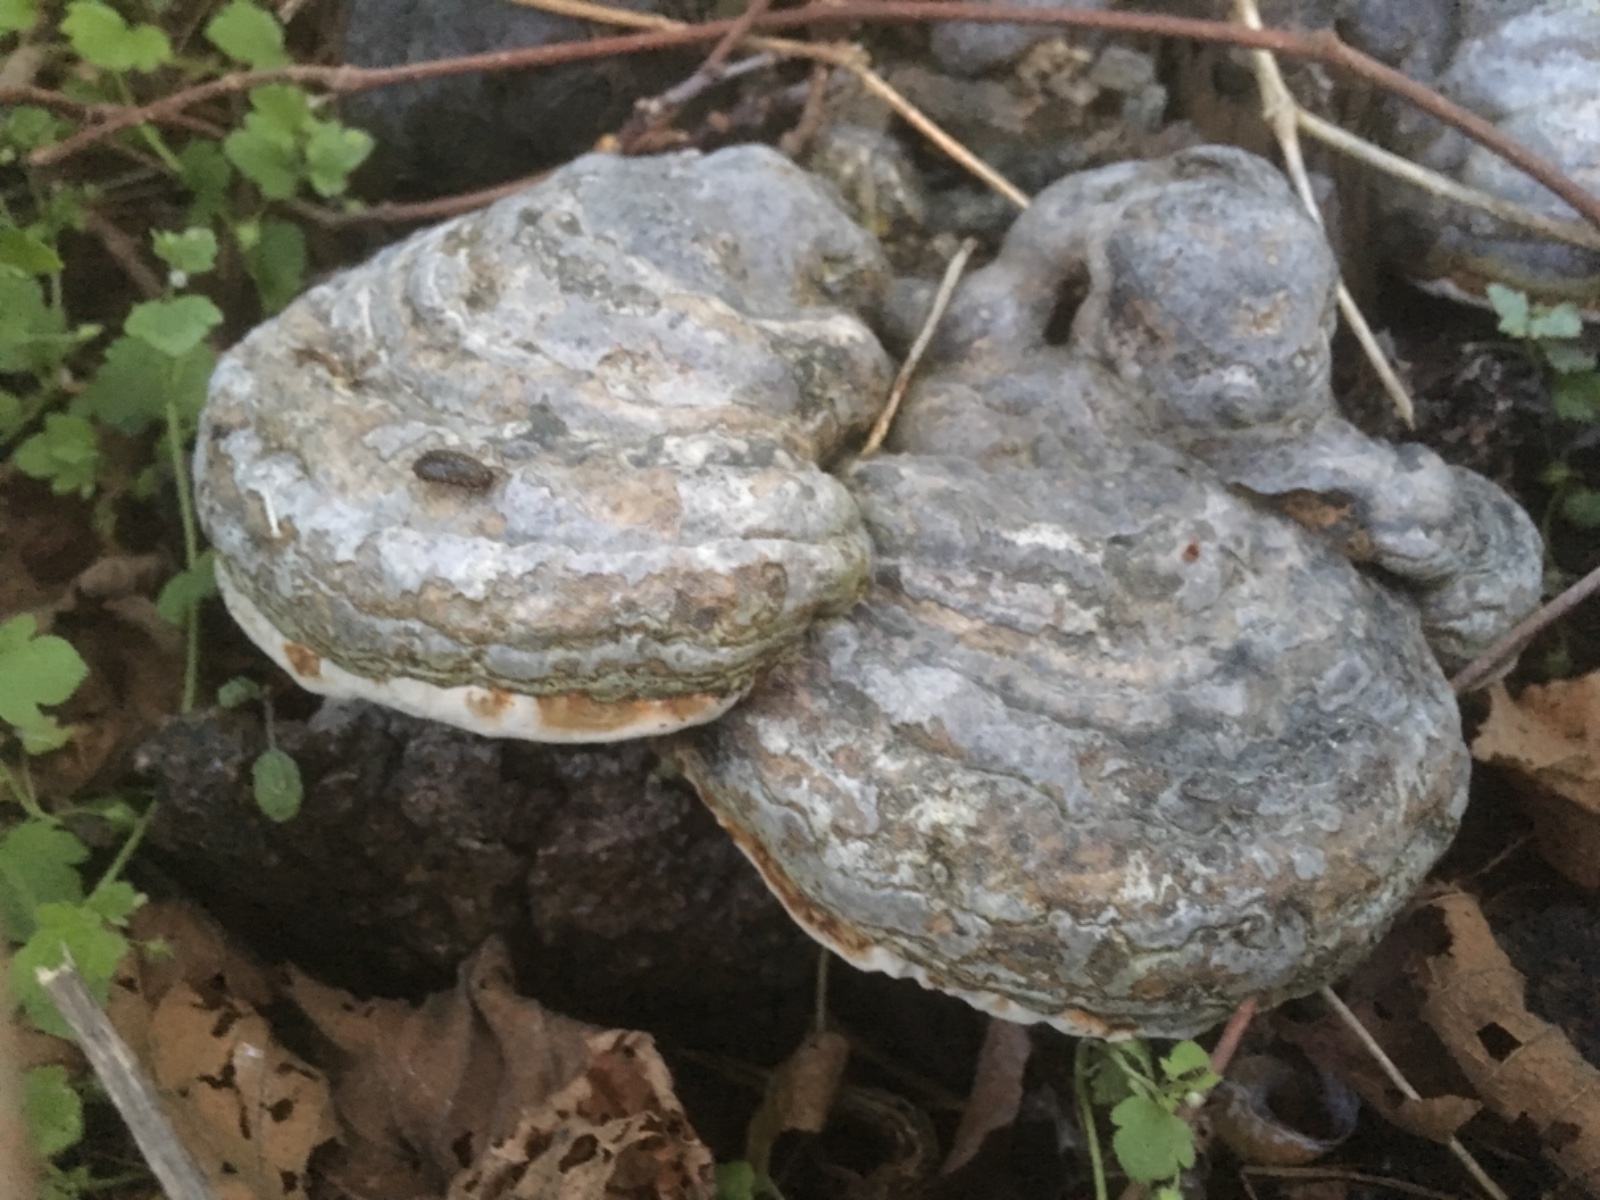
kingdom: Fungi
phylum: Basidiomycota
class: Agaricomycetes
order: Polyporales
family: Polyporaceae
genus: Fomes
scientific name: Fomes fomentarius
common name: tøndersvamp
